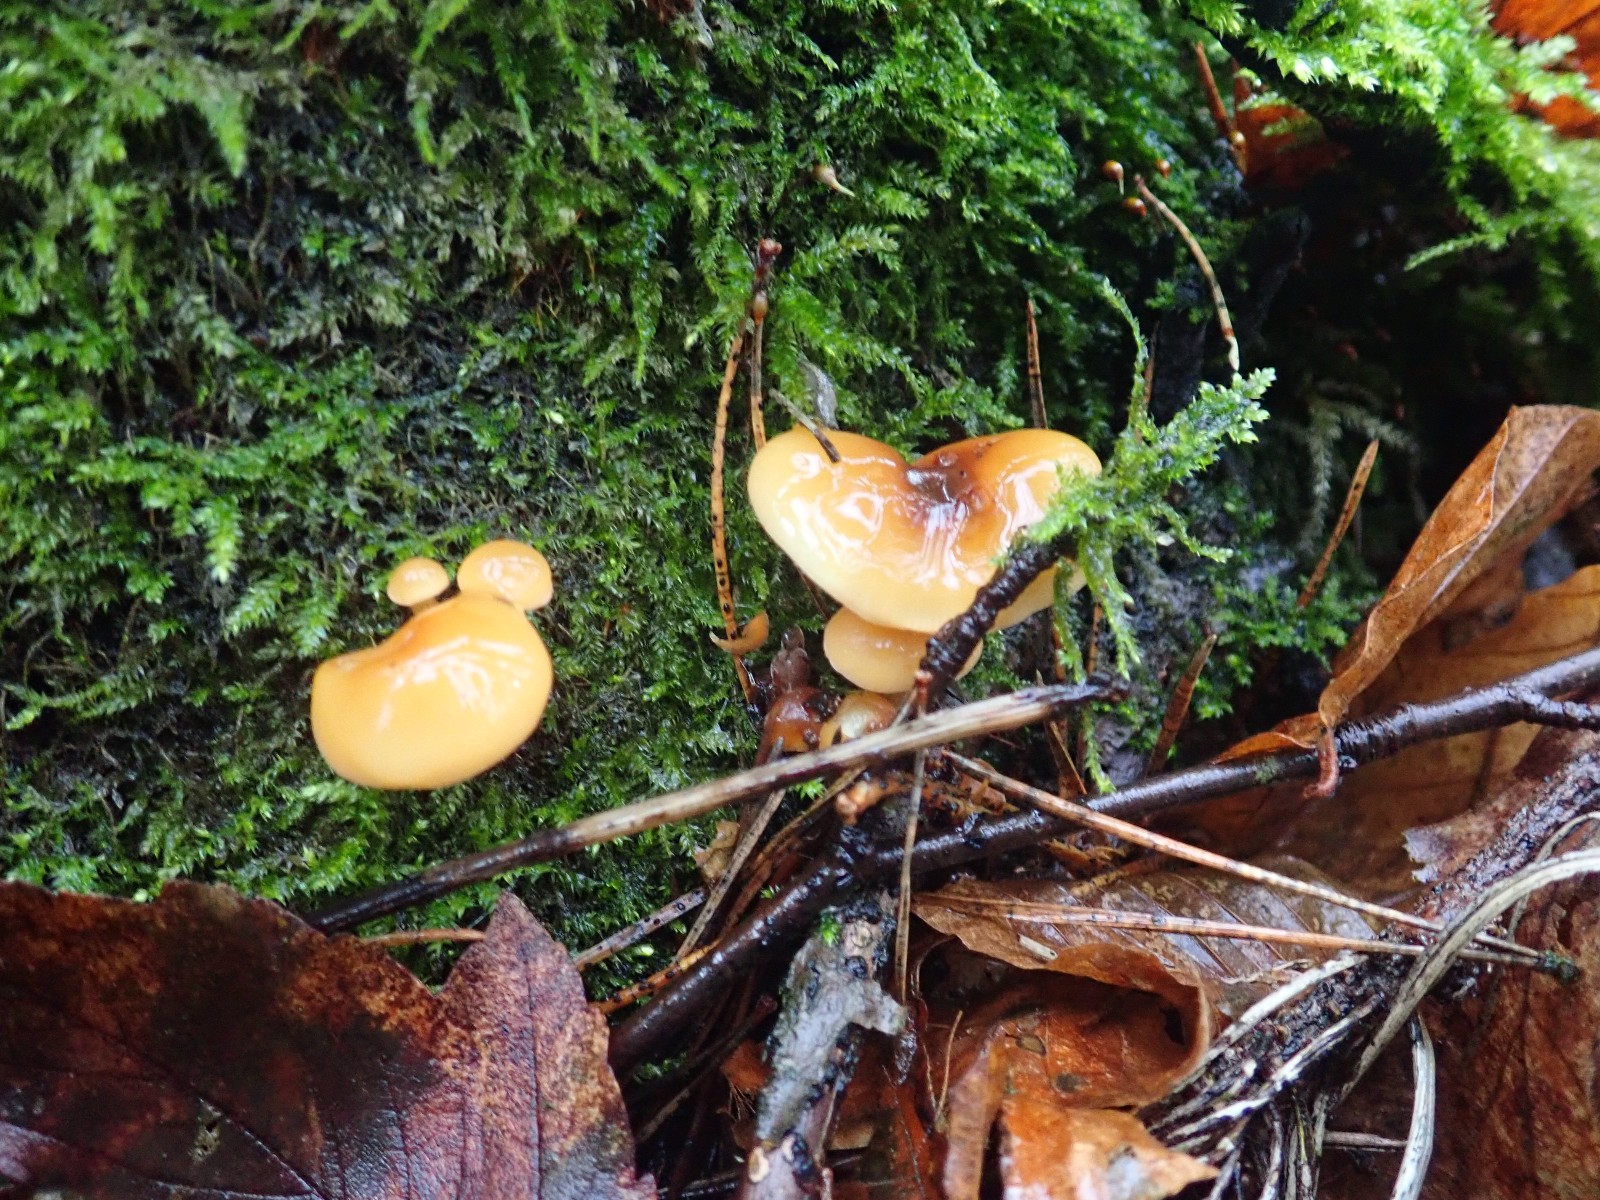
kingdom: Fungi
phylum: Basidiomycota
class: Agaricomycetes
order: Agaricales
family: Physalacriaceae
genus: Flammulina
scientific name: Flammulina velutipes
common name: gul fløjlsfod
